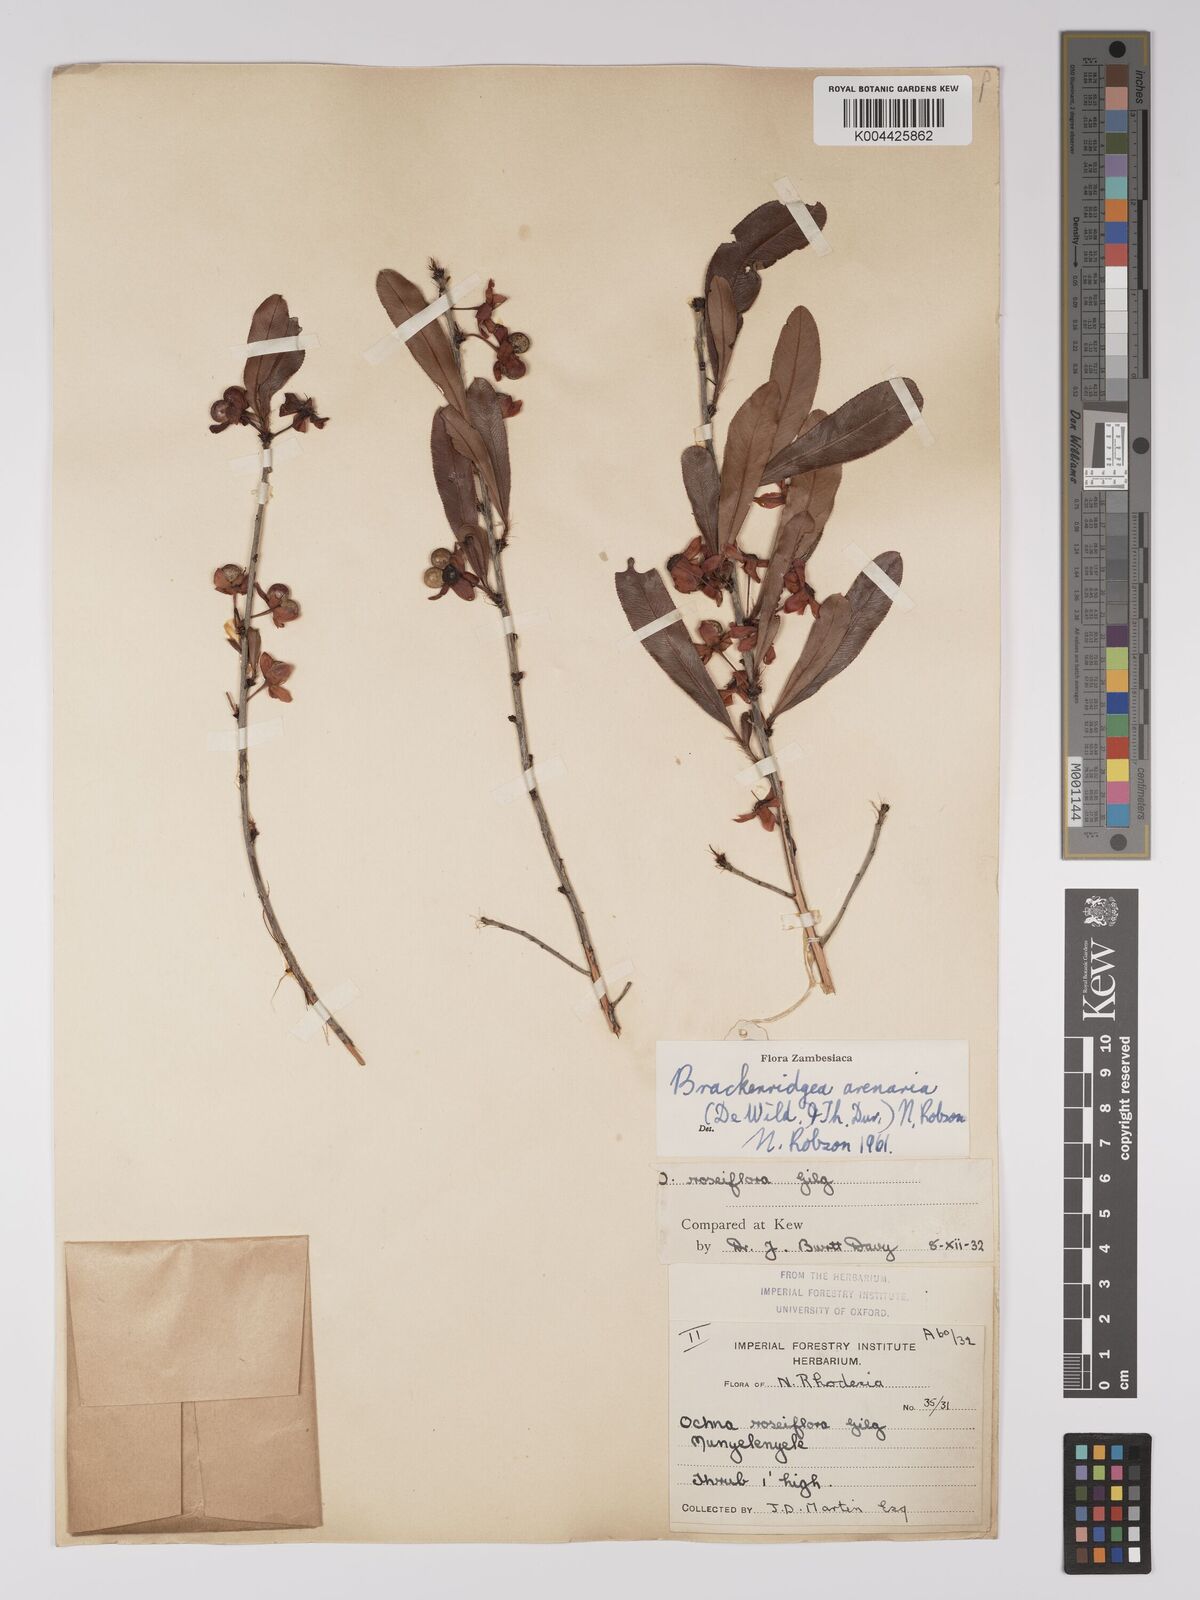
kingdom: Plantae
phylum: Tracheophyta
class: Magnoliopsida
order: Malpighiales
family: Ochnaceae
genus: Ochna
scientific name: Ochna arenaria
